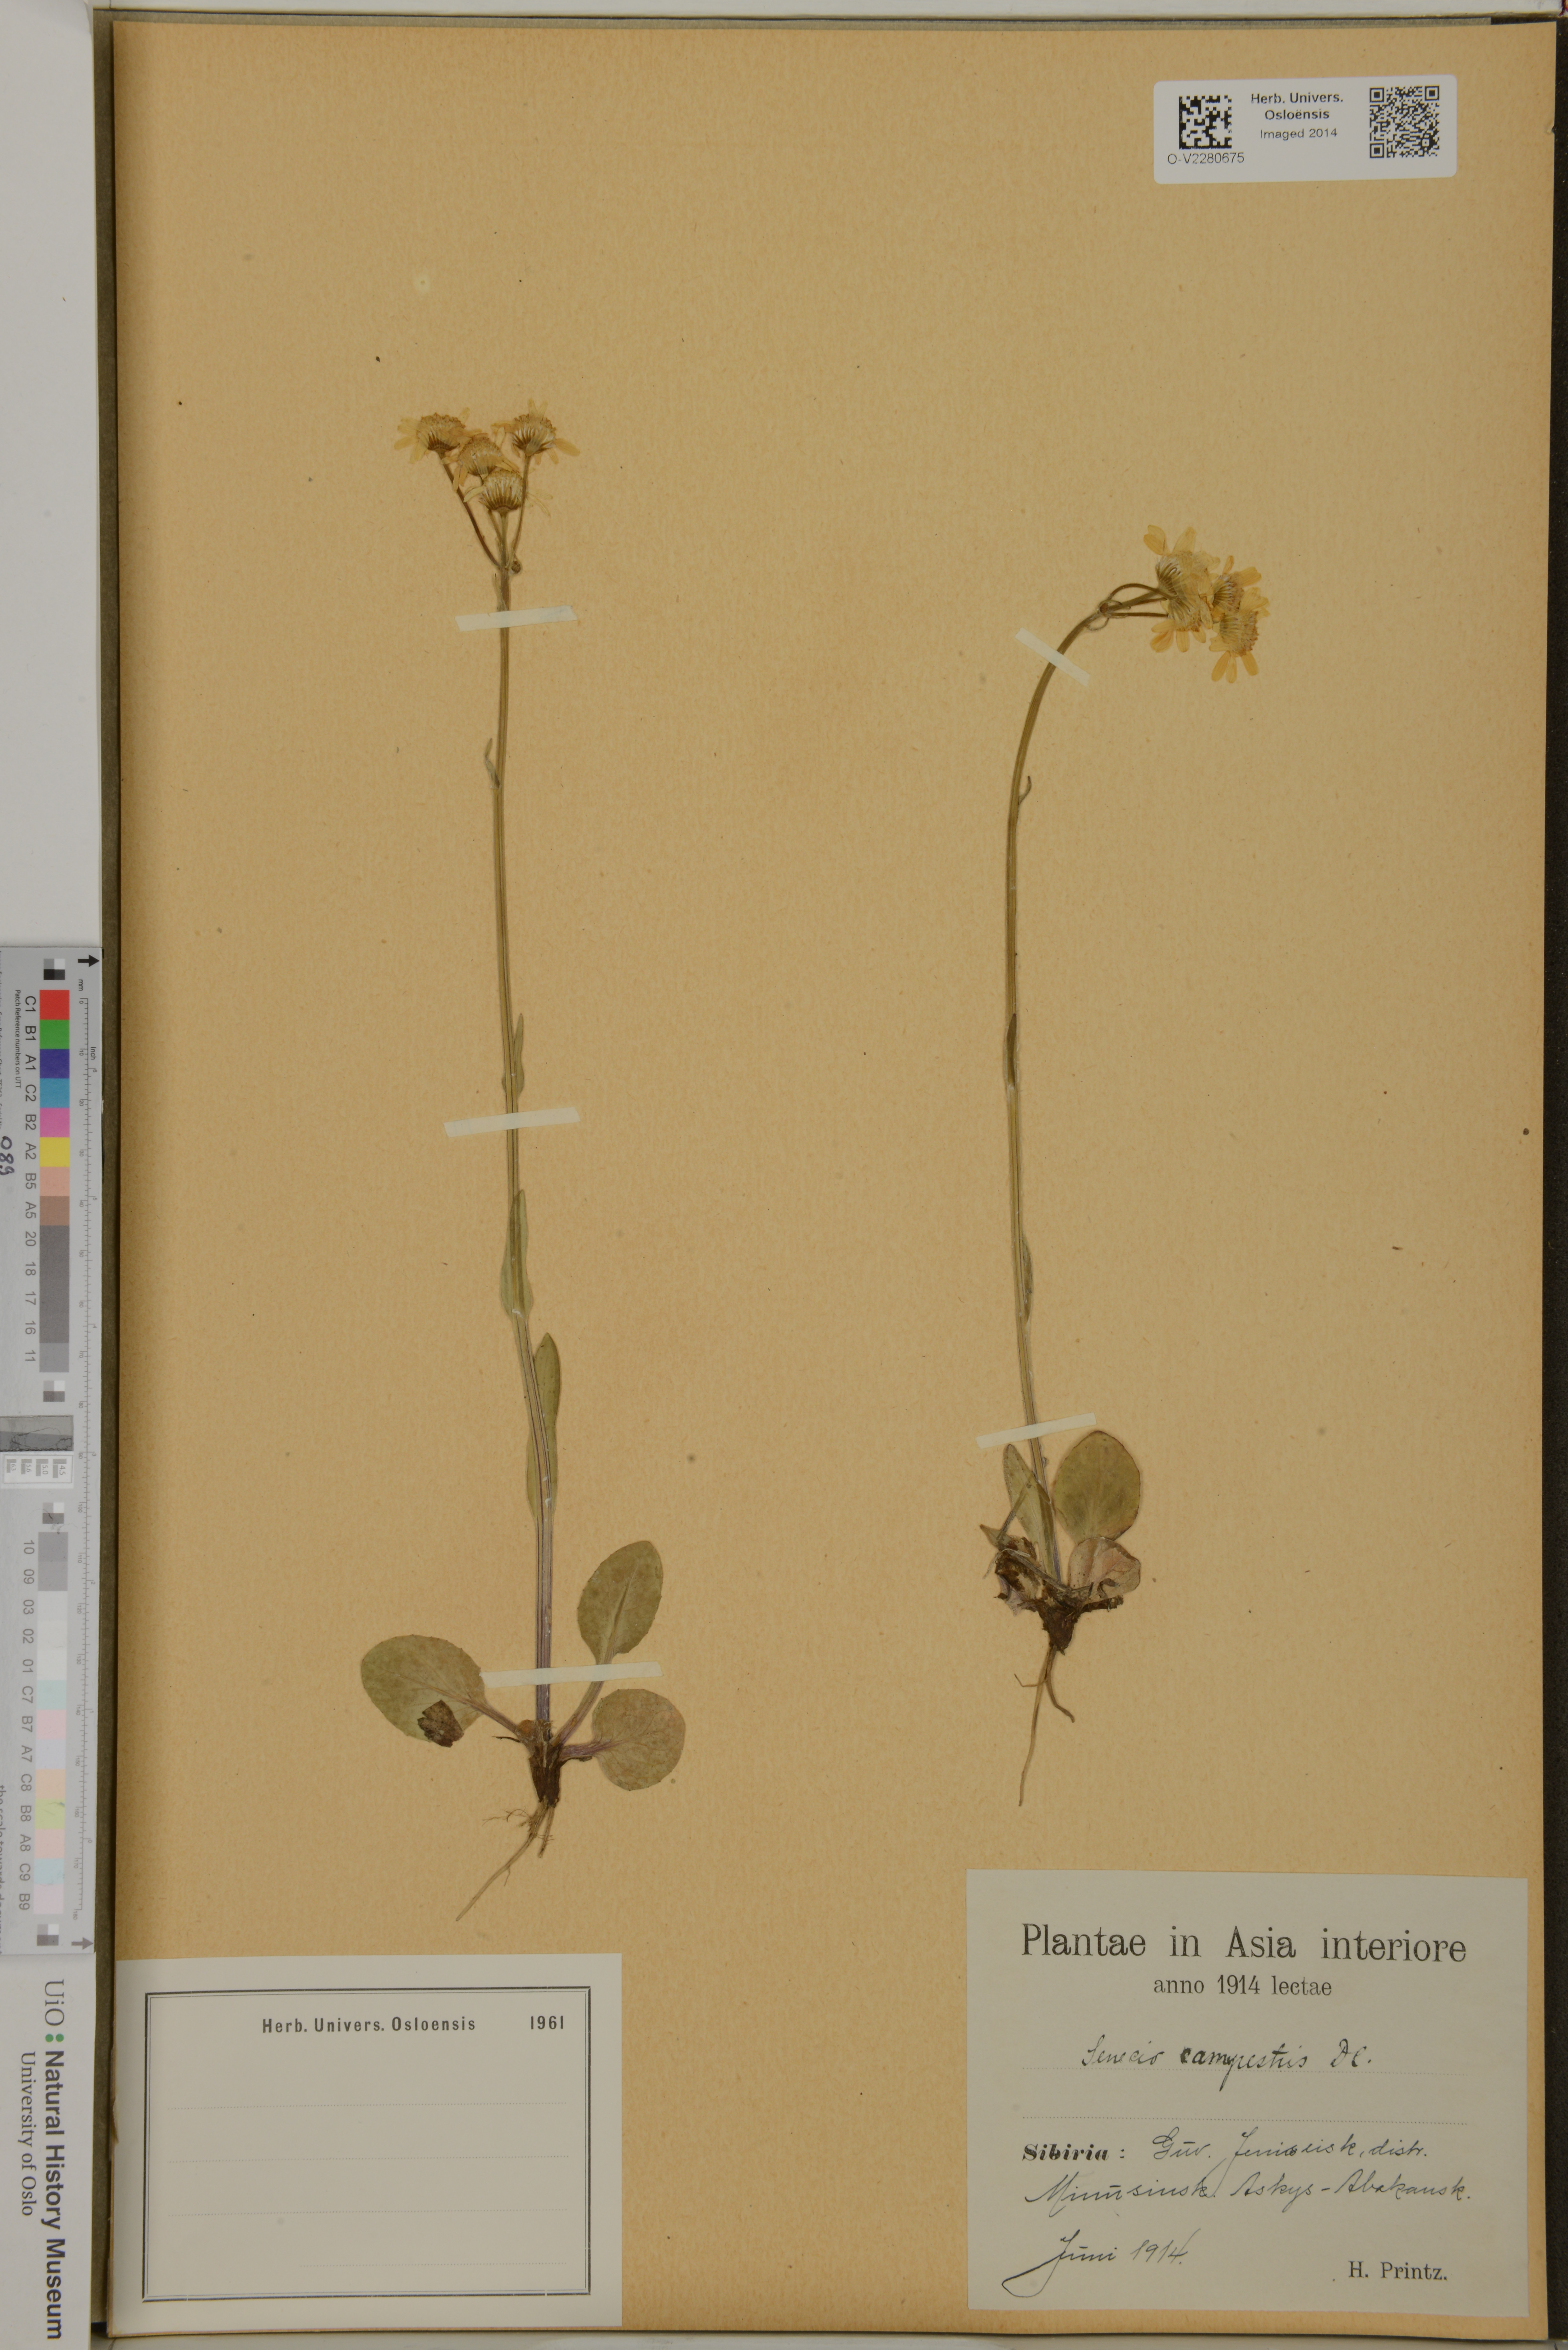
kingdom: Plantae
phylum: Tracheophyta
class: Magnoliopsida
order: Asterales
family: Asteraceae
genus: Tephroseris
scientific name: Tephroseris integrifolia
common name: Field fleawort
